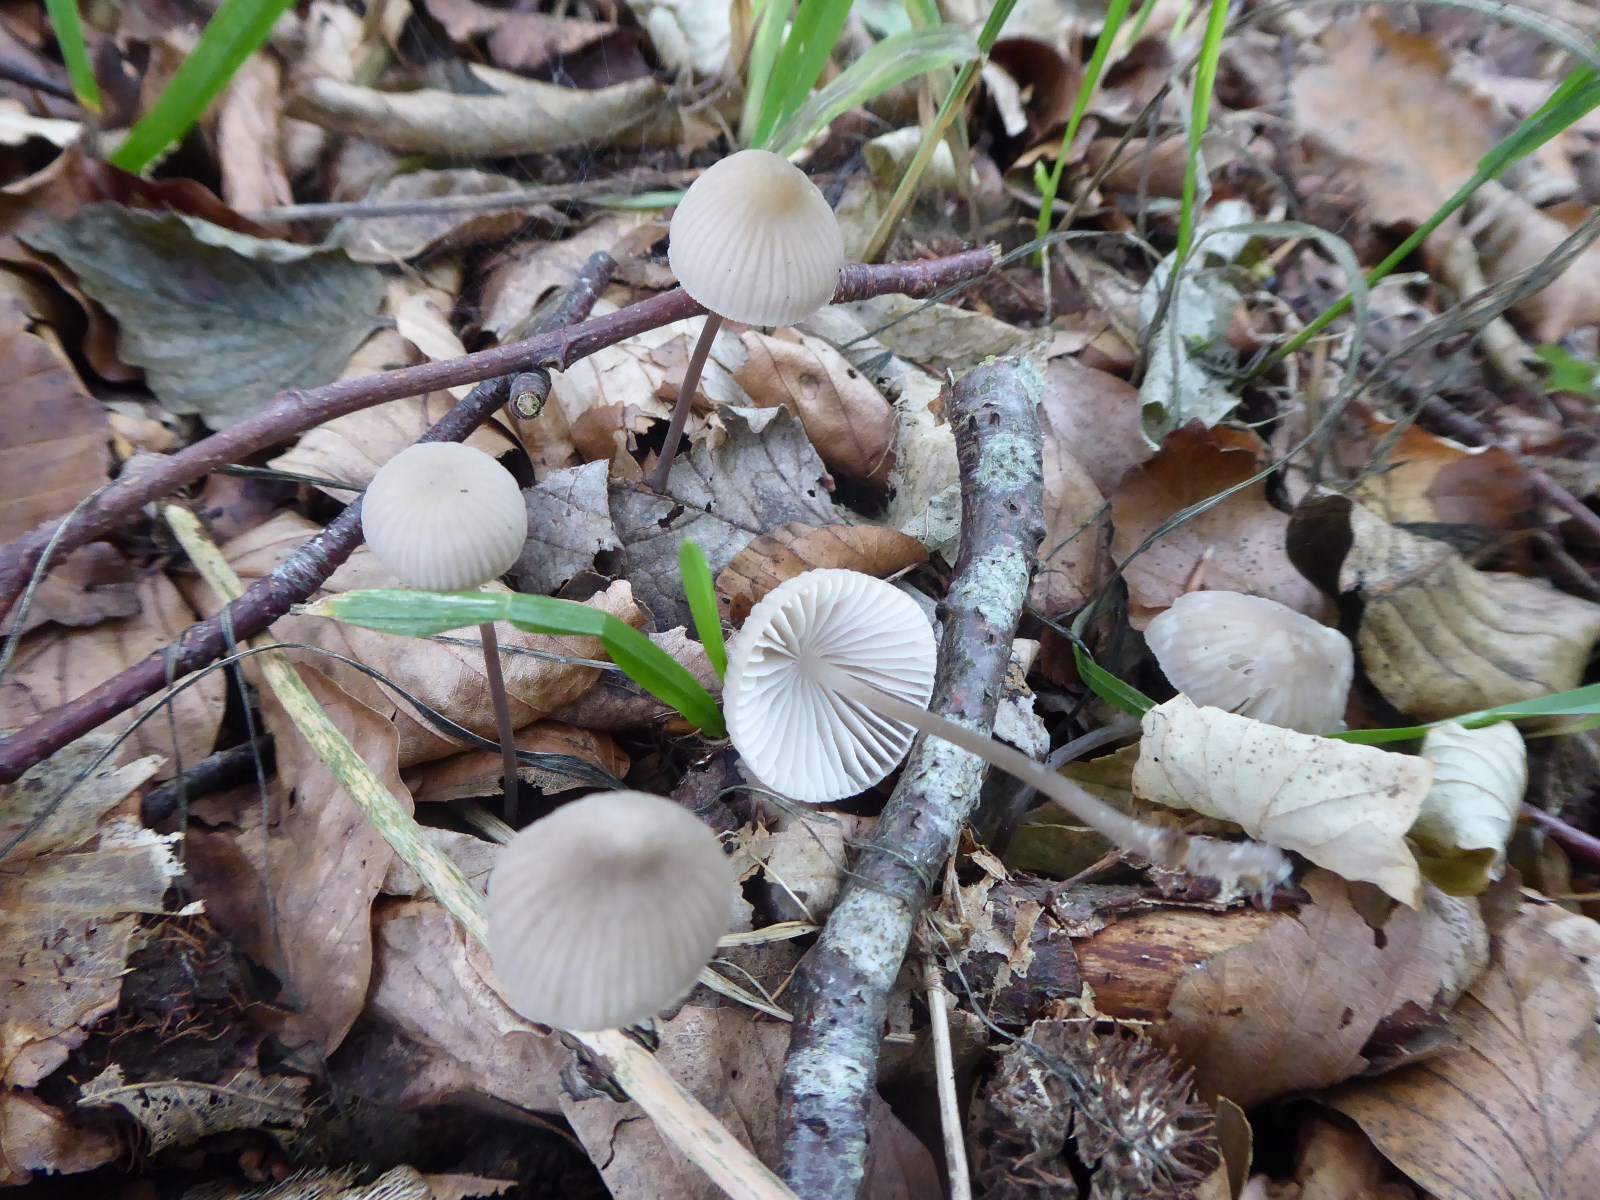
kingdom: Fungi
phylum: Basidiomycota
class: Agaricomycetes
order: Agaricales
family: Mycenaceae
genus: Mycena
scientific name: Mycena
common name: huesvamp
